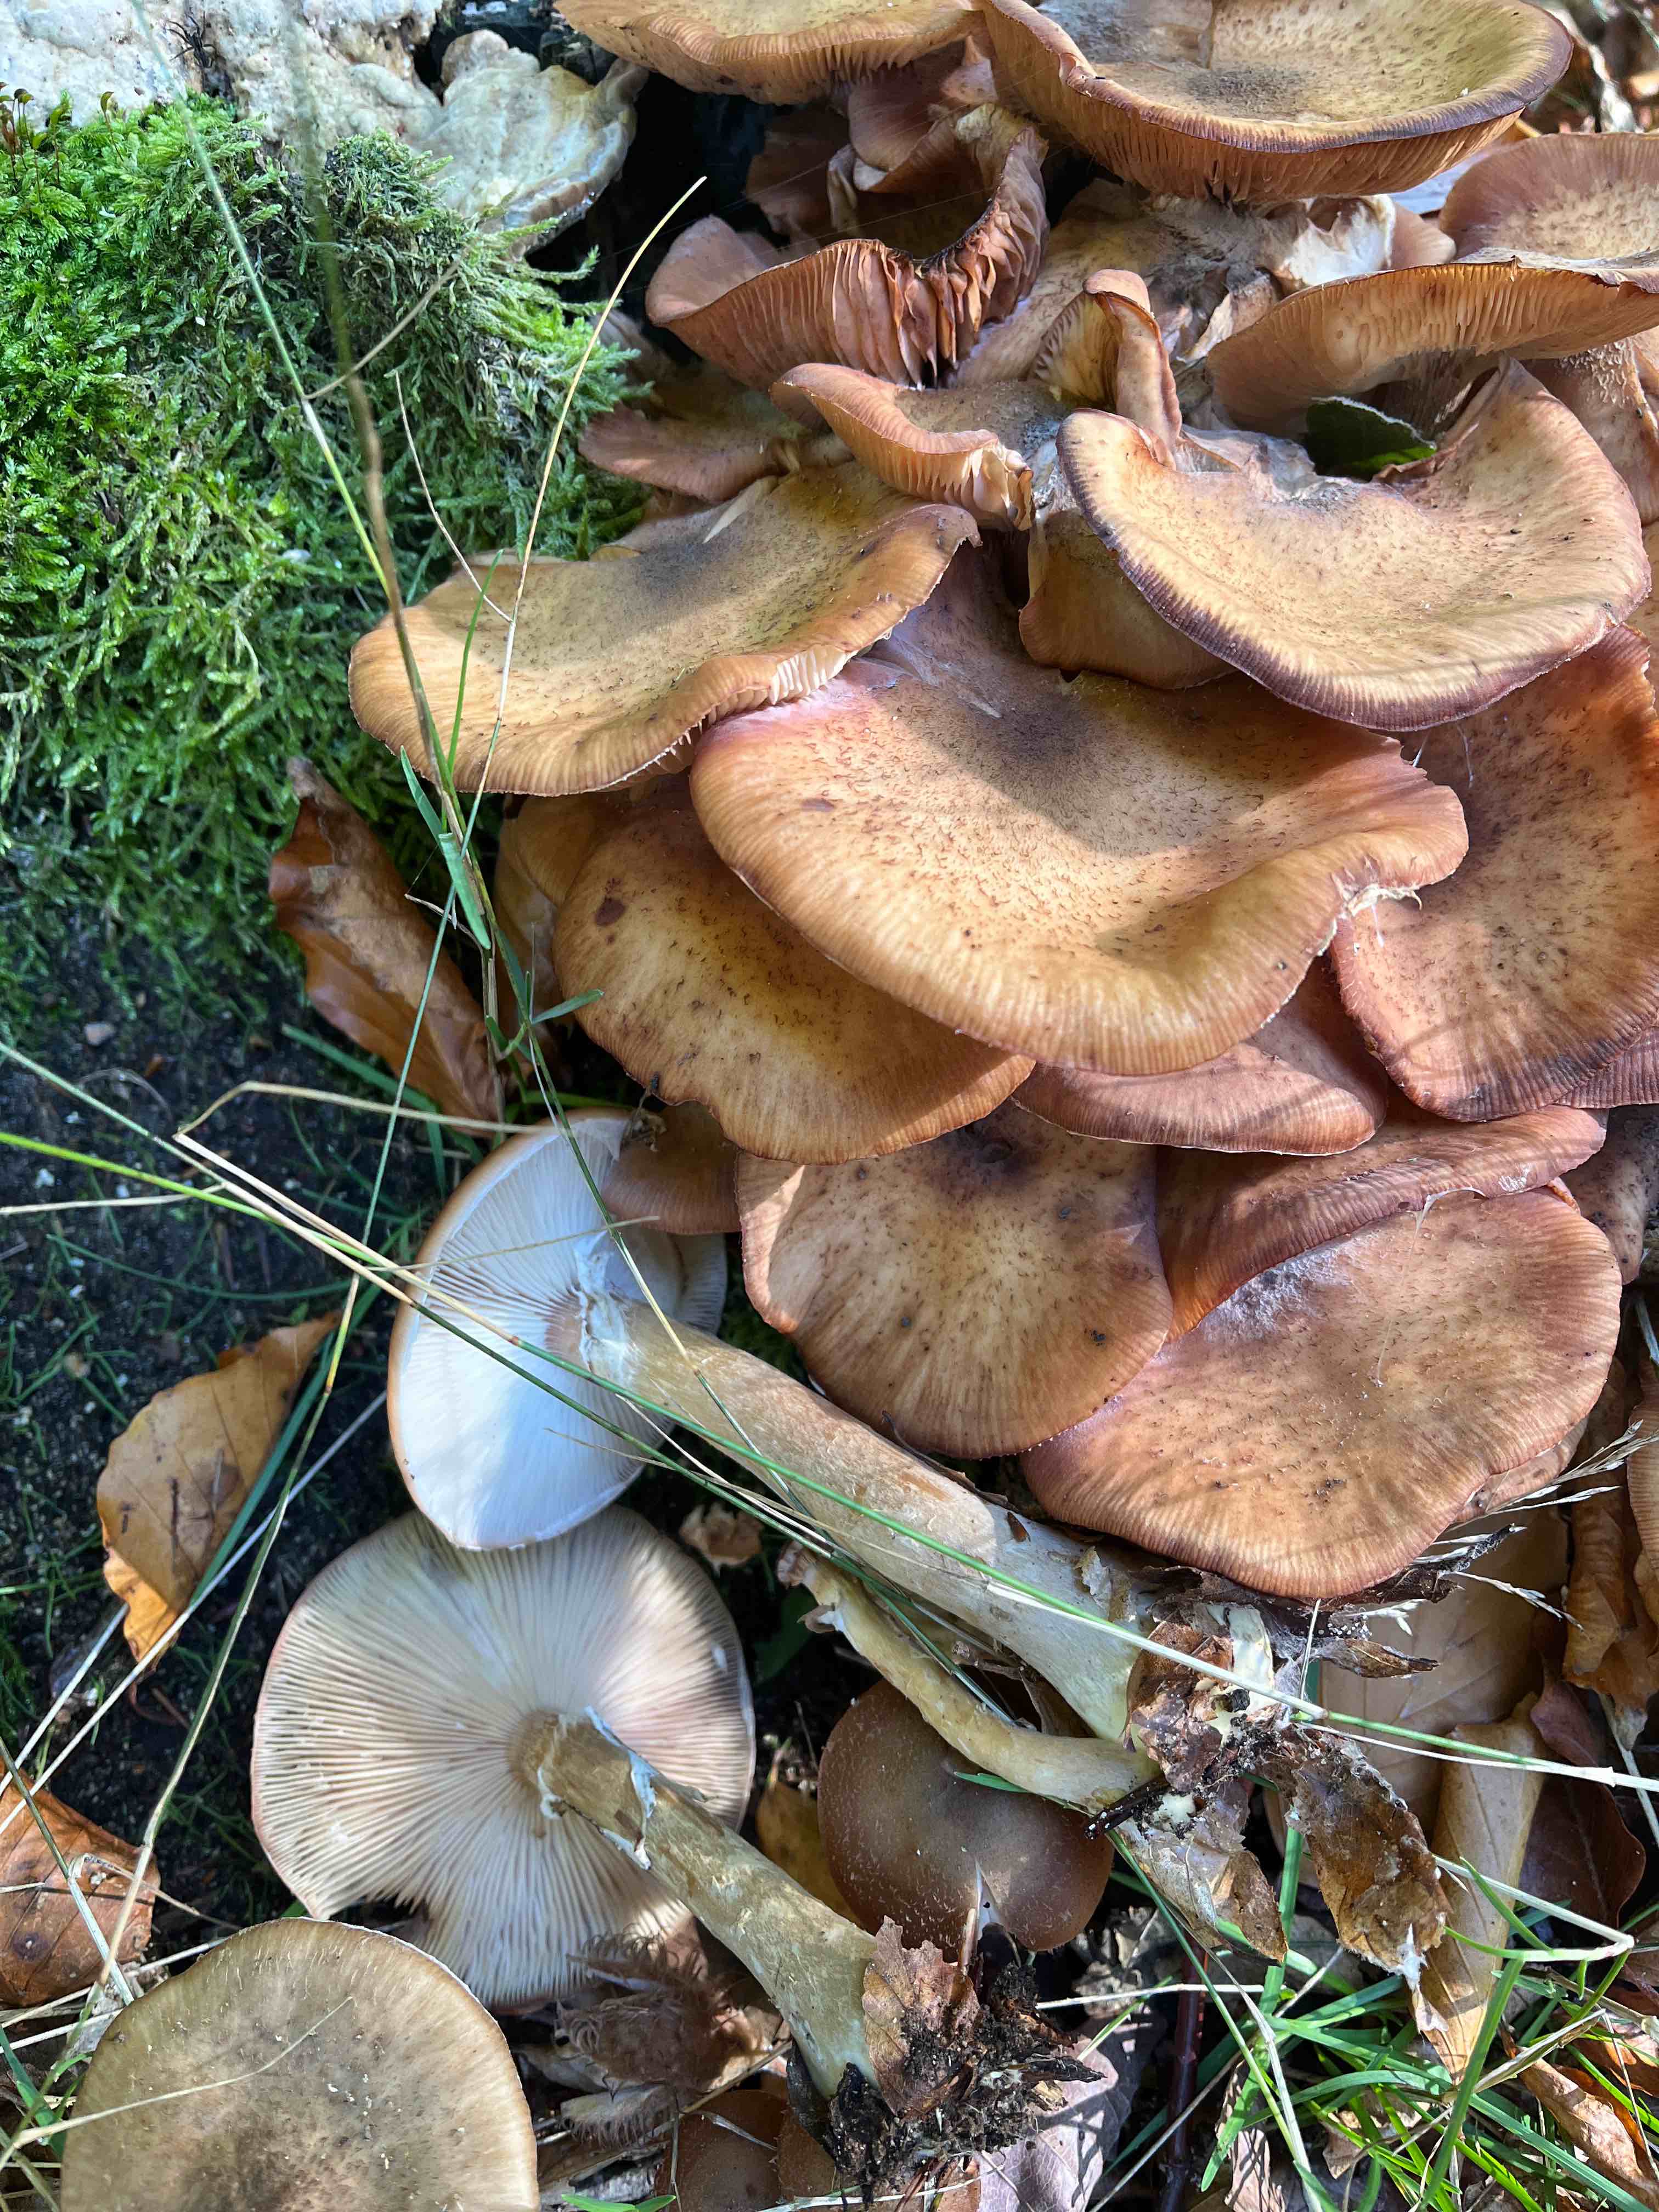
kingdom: Fungi
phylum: Basidiomycota
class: Agaricomycetes
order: Agaricales
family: Physalacriaceae
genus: Armillaria
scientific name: Armillaria lutea
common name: køllestokket honningsvamp
